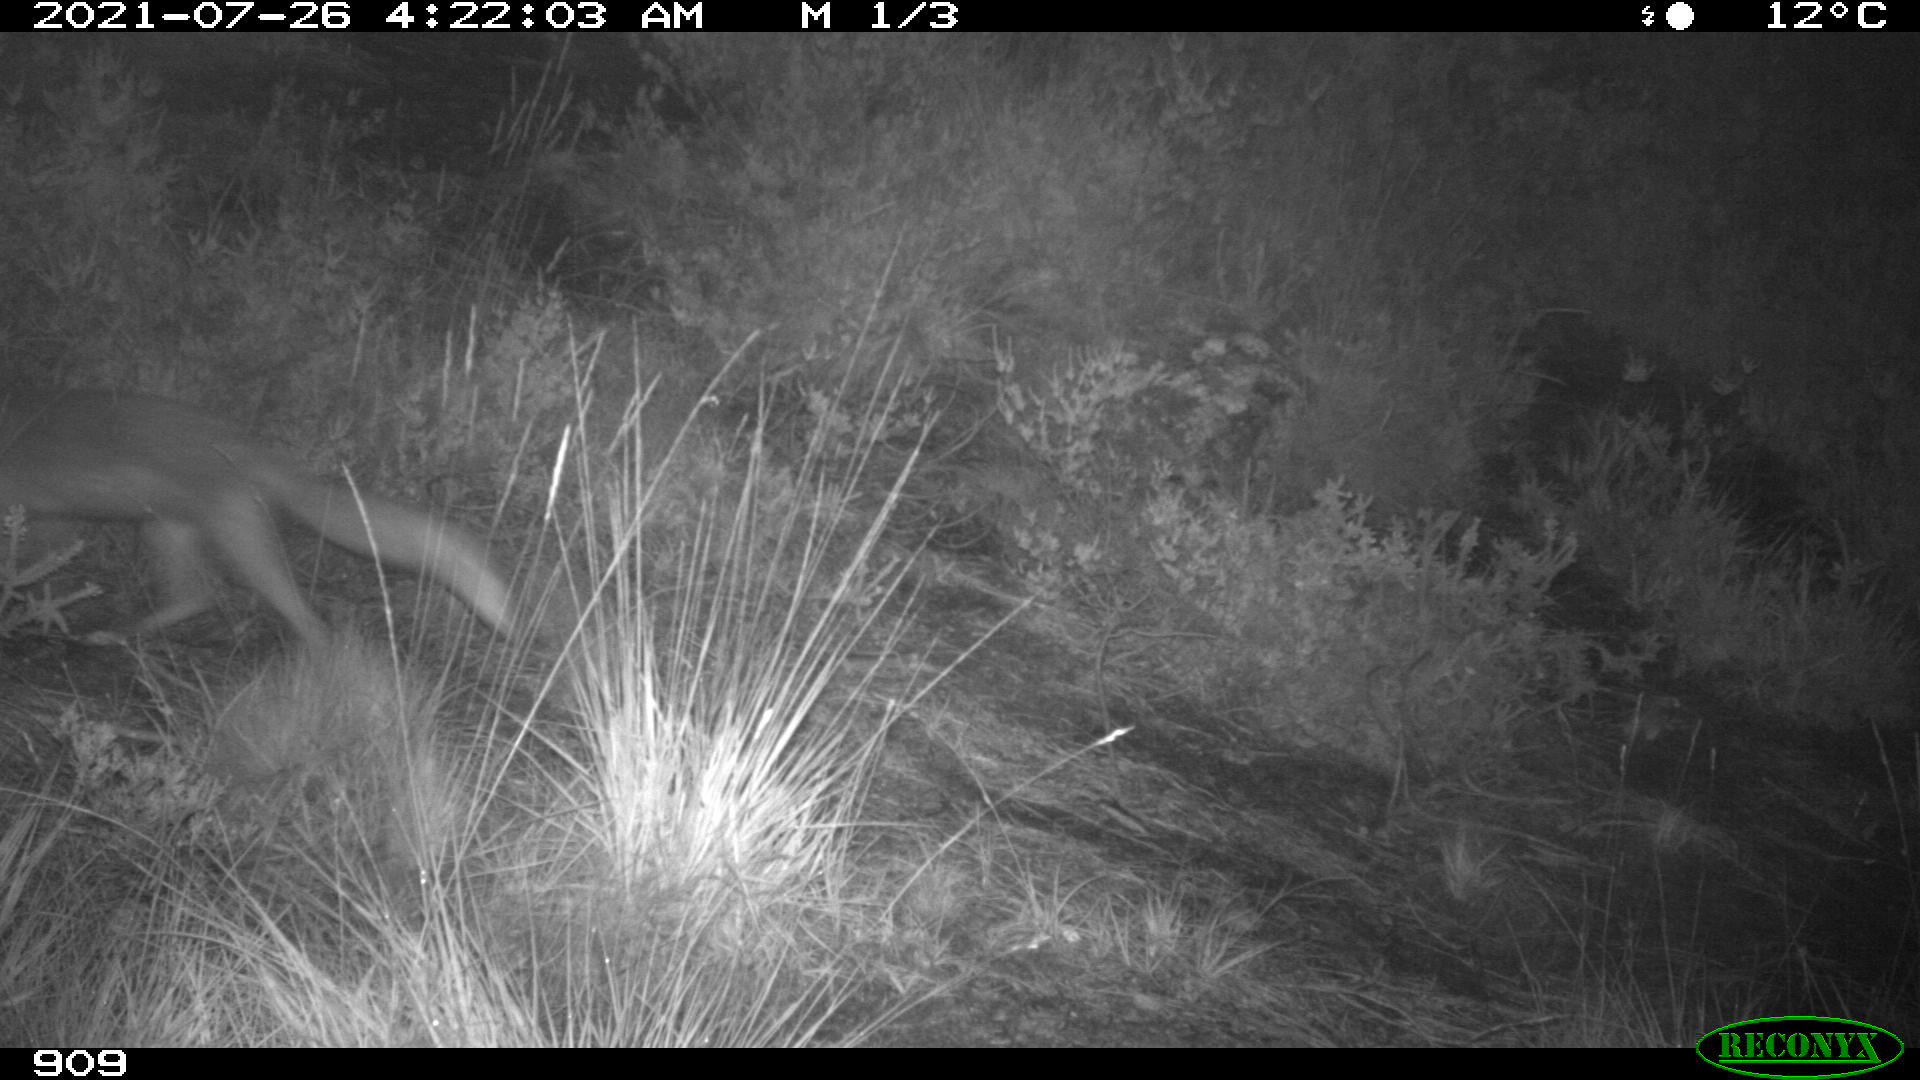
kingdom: Animalia
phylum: Chordata
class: Mammalia
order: Carnivora
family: Canidae
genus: Vulpes
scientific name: Vulpes vulpes
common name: Red fox
